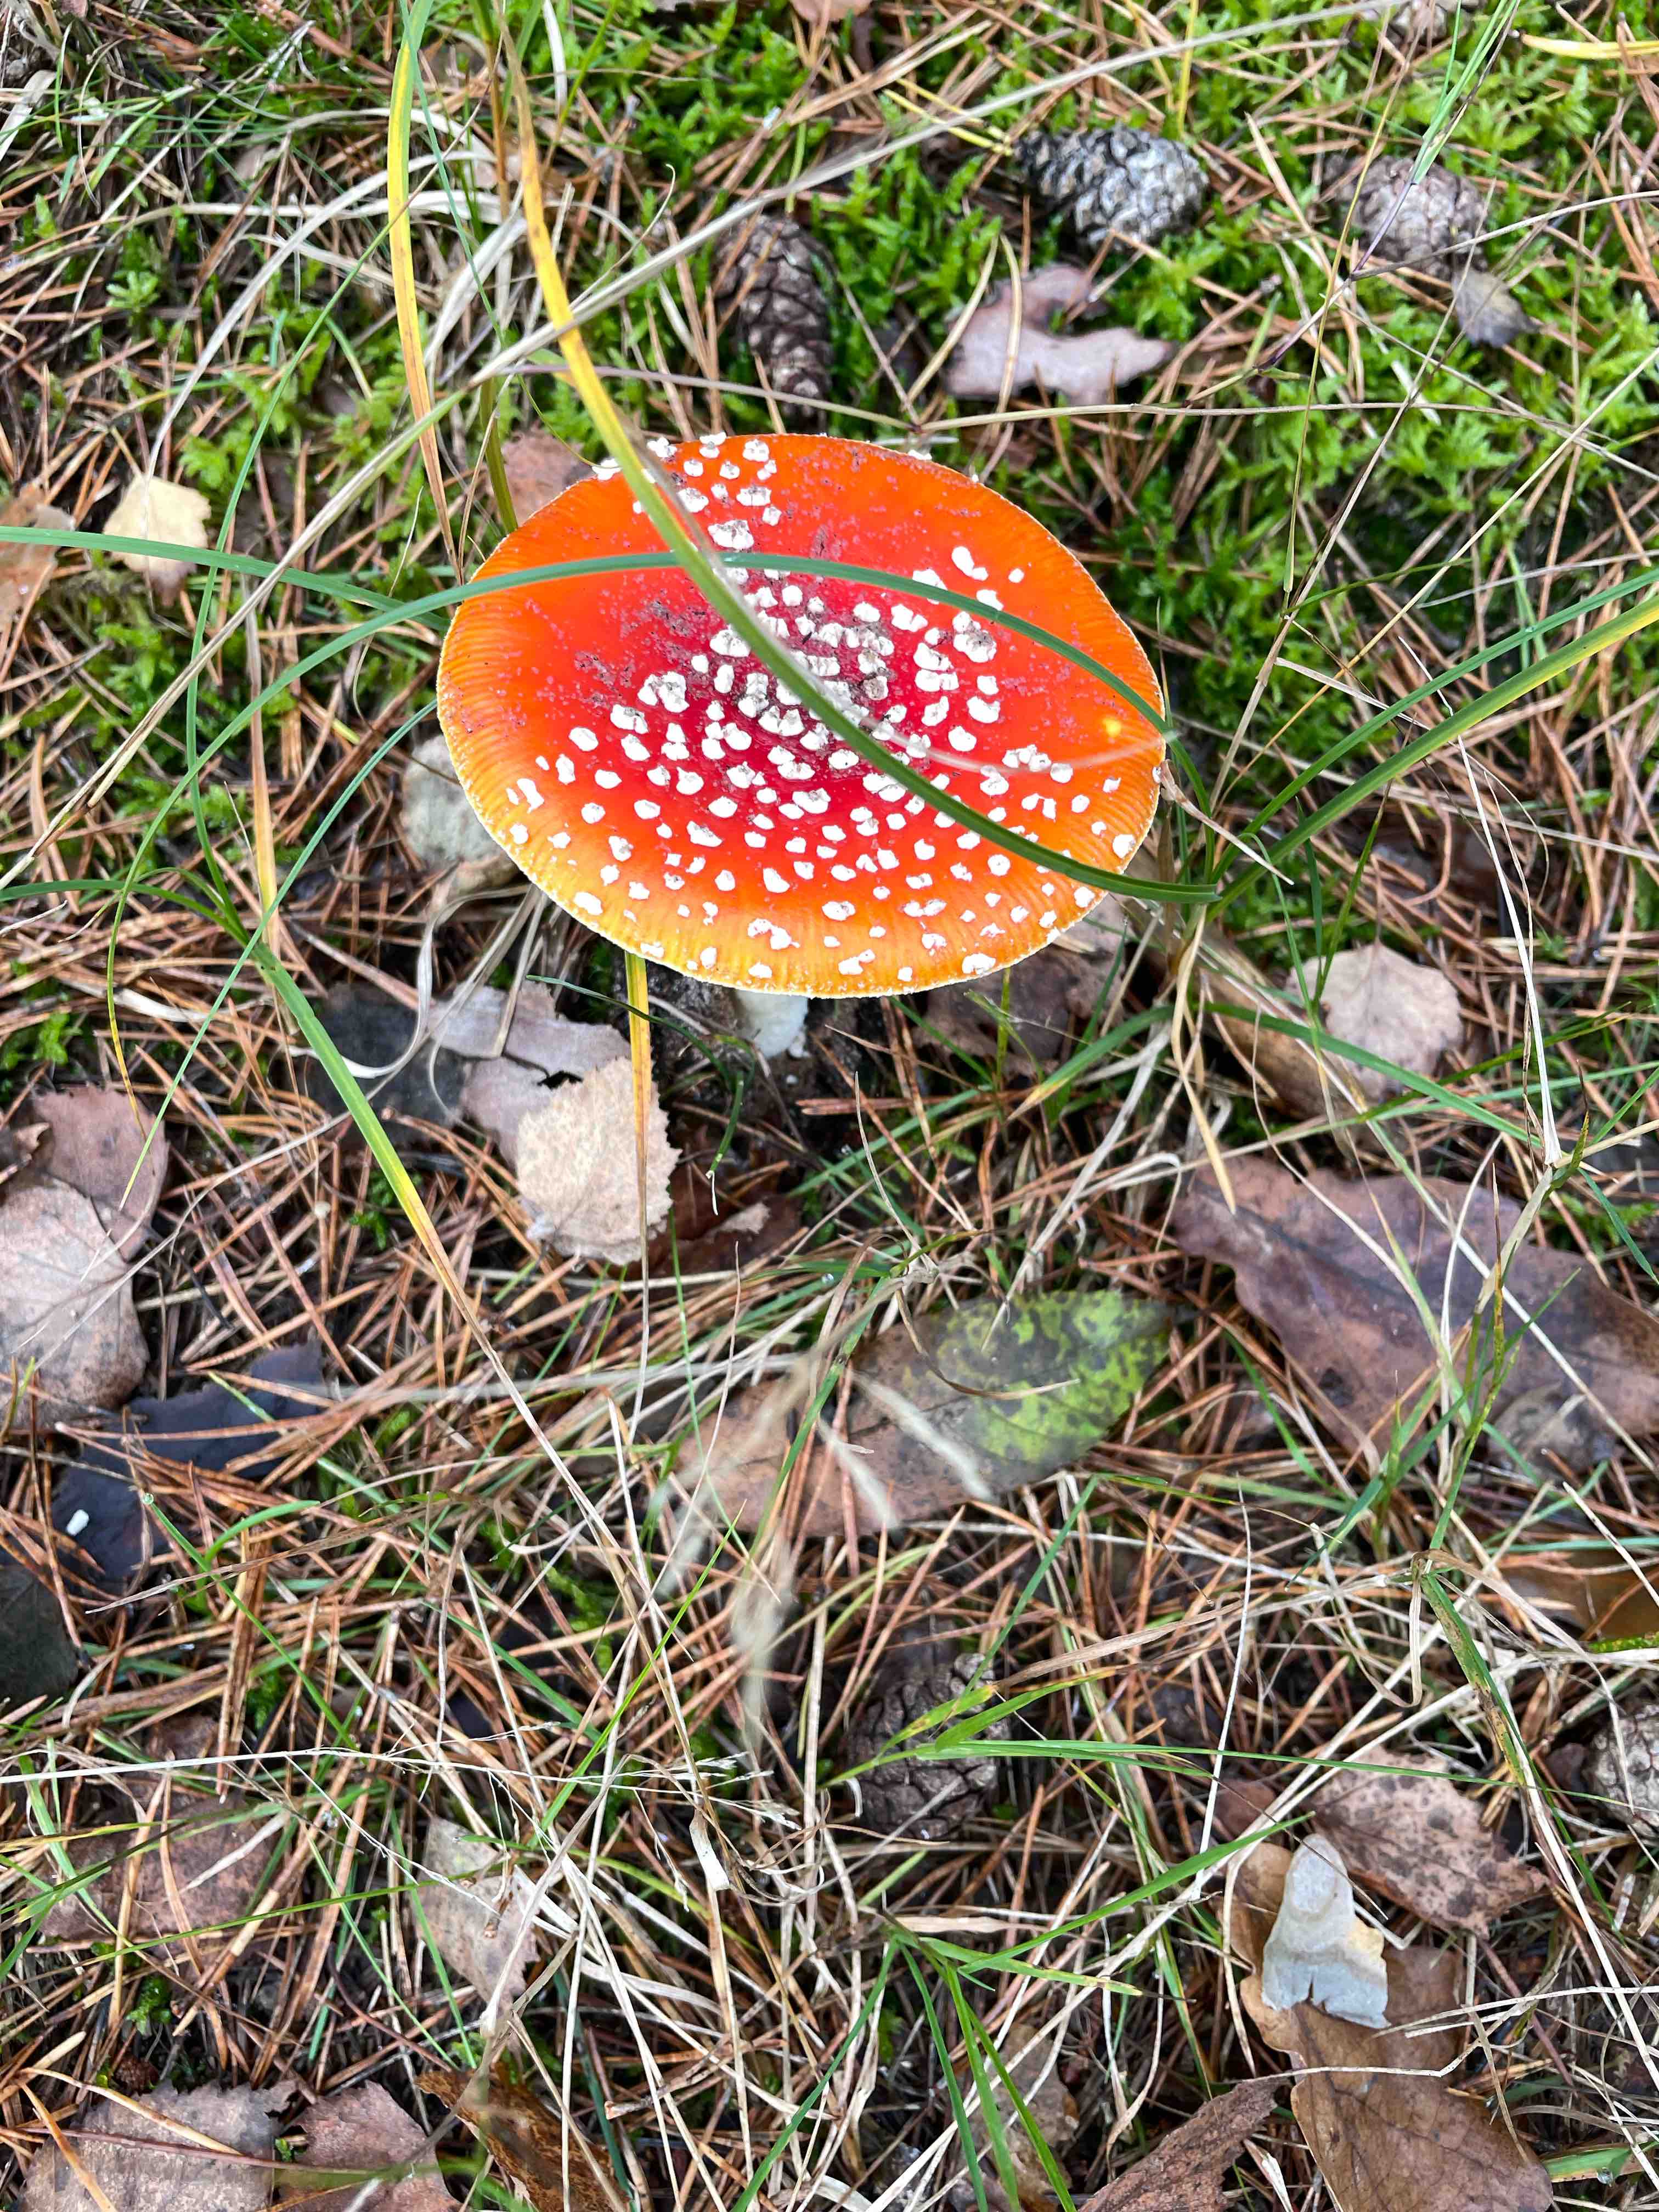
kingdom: Fungi
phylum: Basidiomycota
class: Agaricomycetes
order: Agaricales
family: Amanitaceae
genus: Amanita
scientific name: Amanita muscaria
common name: rød fluesvamp
